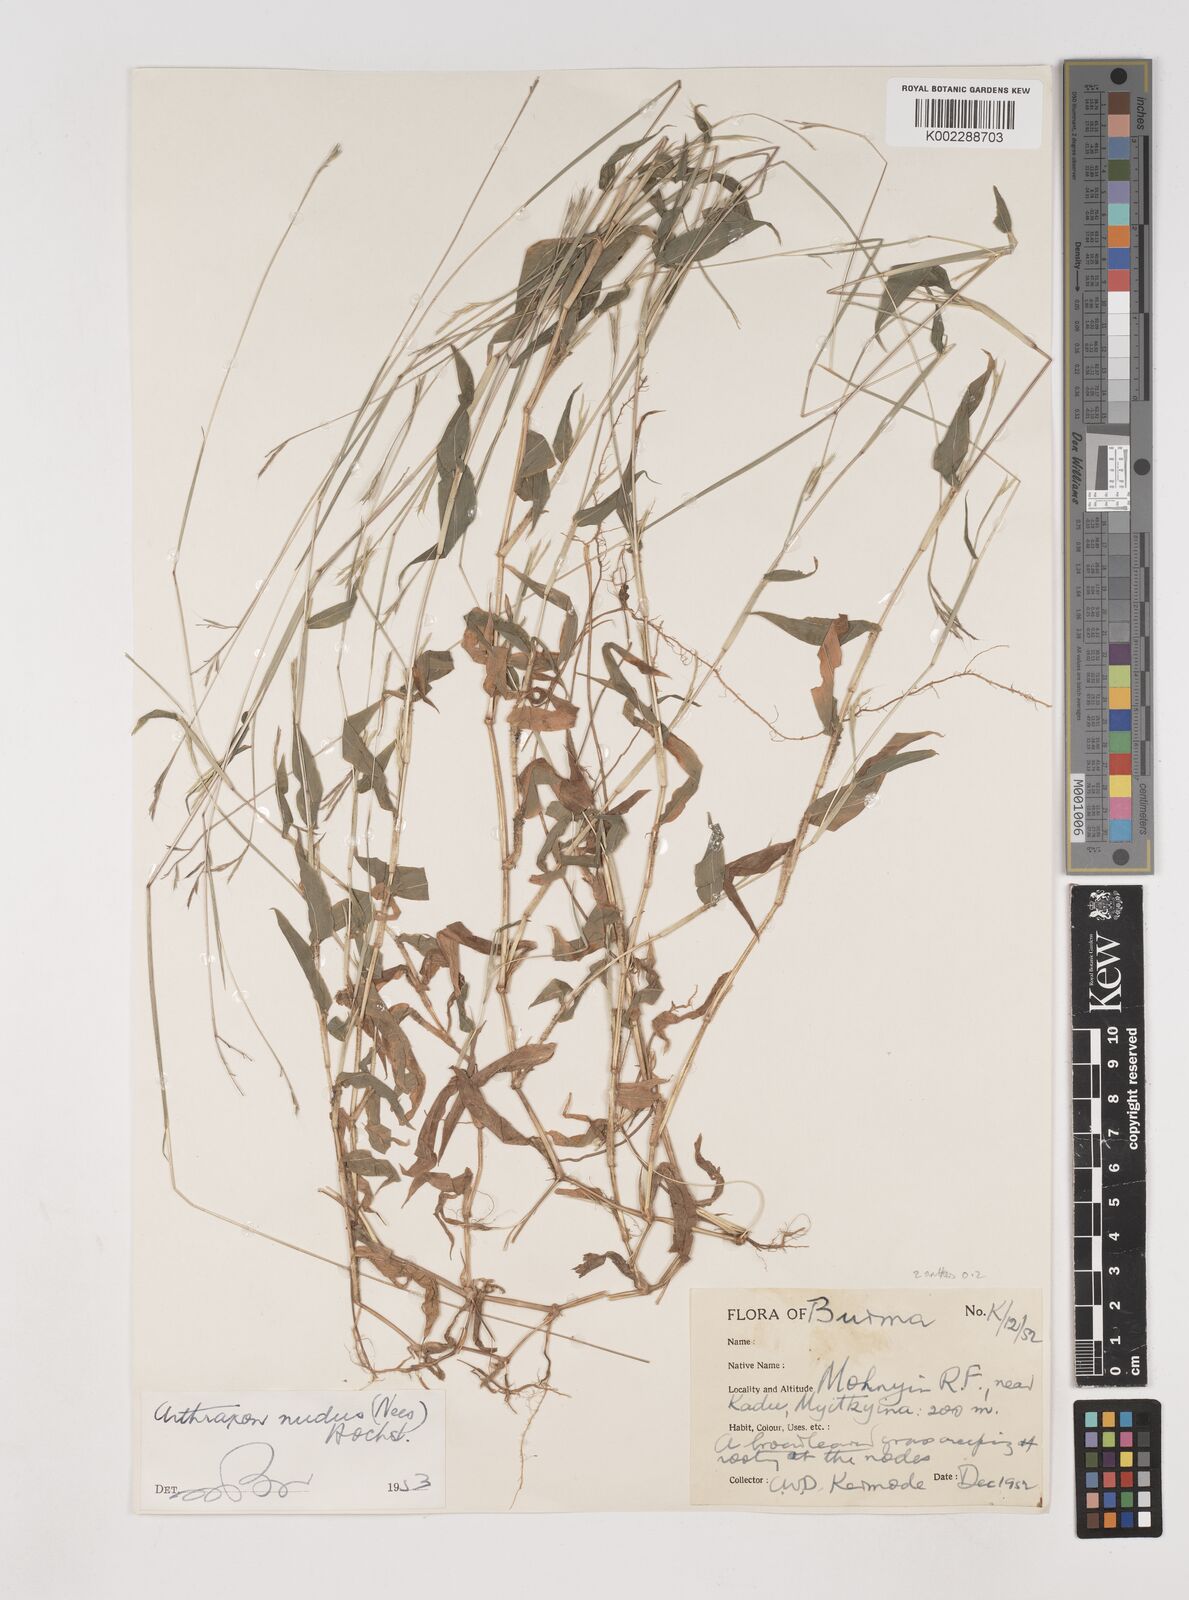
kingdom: Plantae
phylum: Tracheophyta
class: Liliopsida
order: Poales
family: Poaceae
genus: Arthraxon
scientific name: Arthraxon hispidus
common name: Small carpgrass
